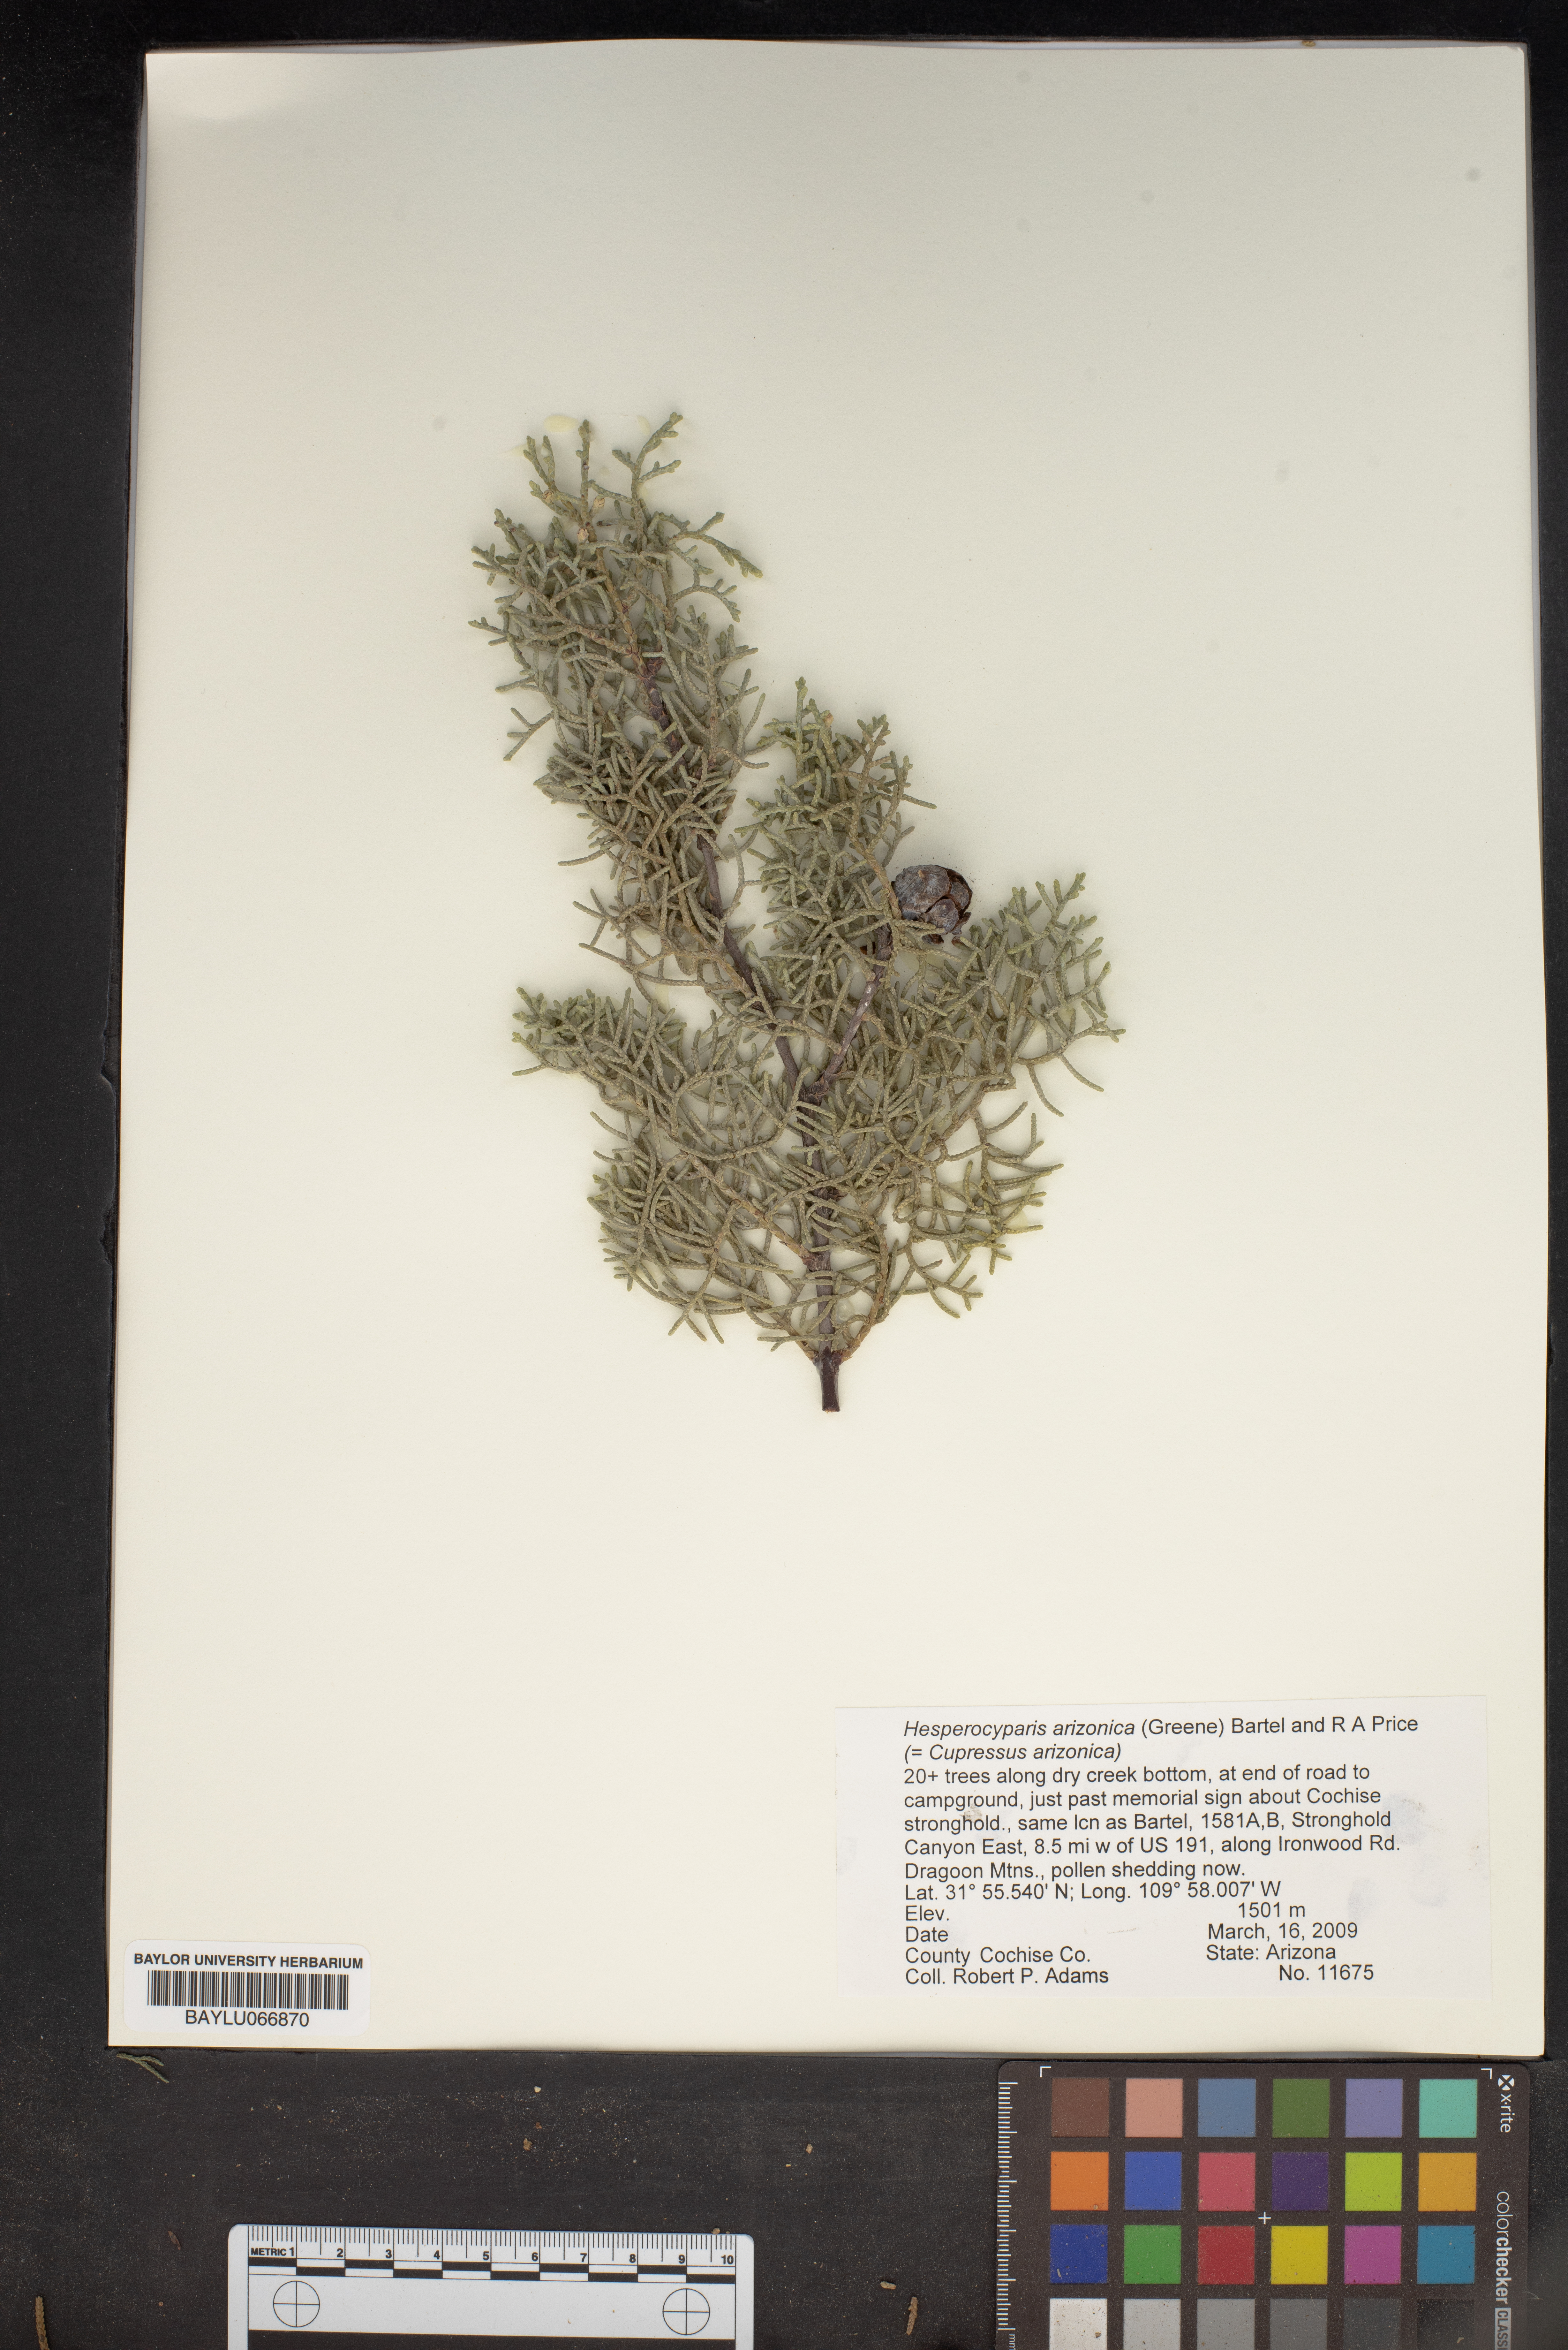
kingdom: Plantae
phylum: Tracheophyta
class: Pinopsida
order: Pinales
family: Cupressaceae
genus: Cupressus
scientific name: Cupressus arizonica
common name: Arizona cypress
